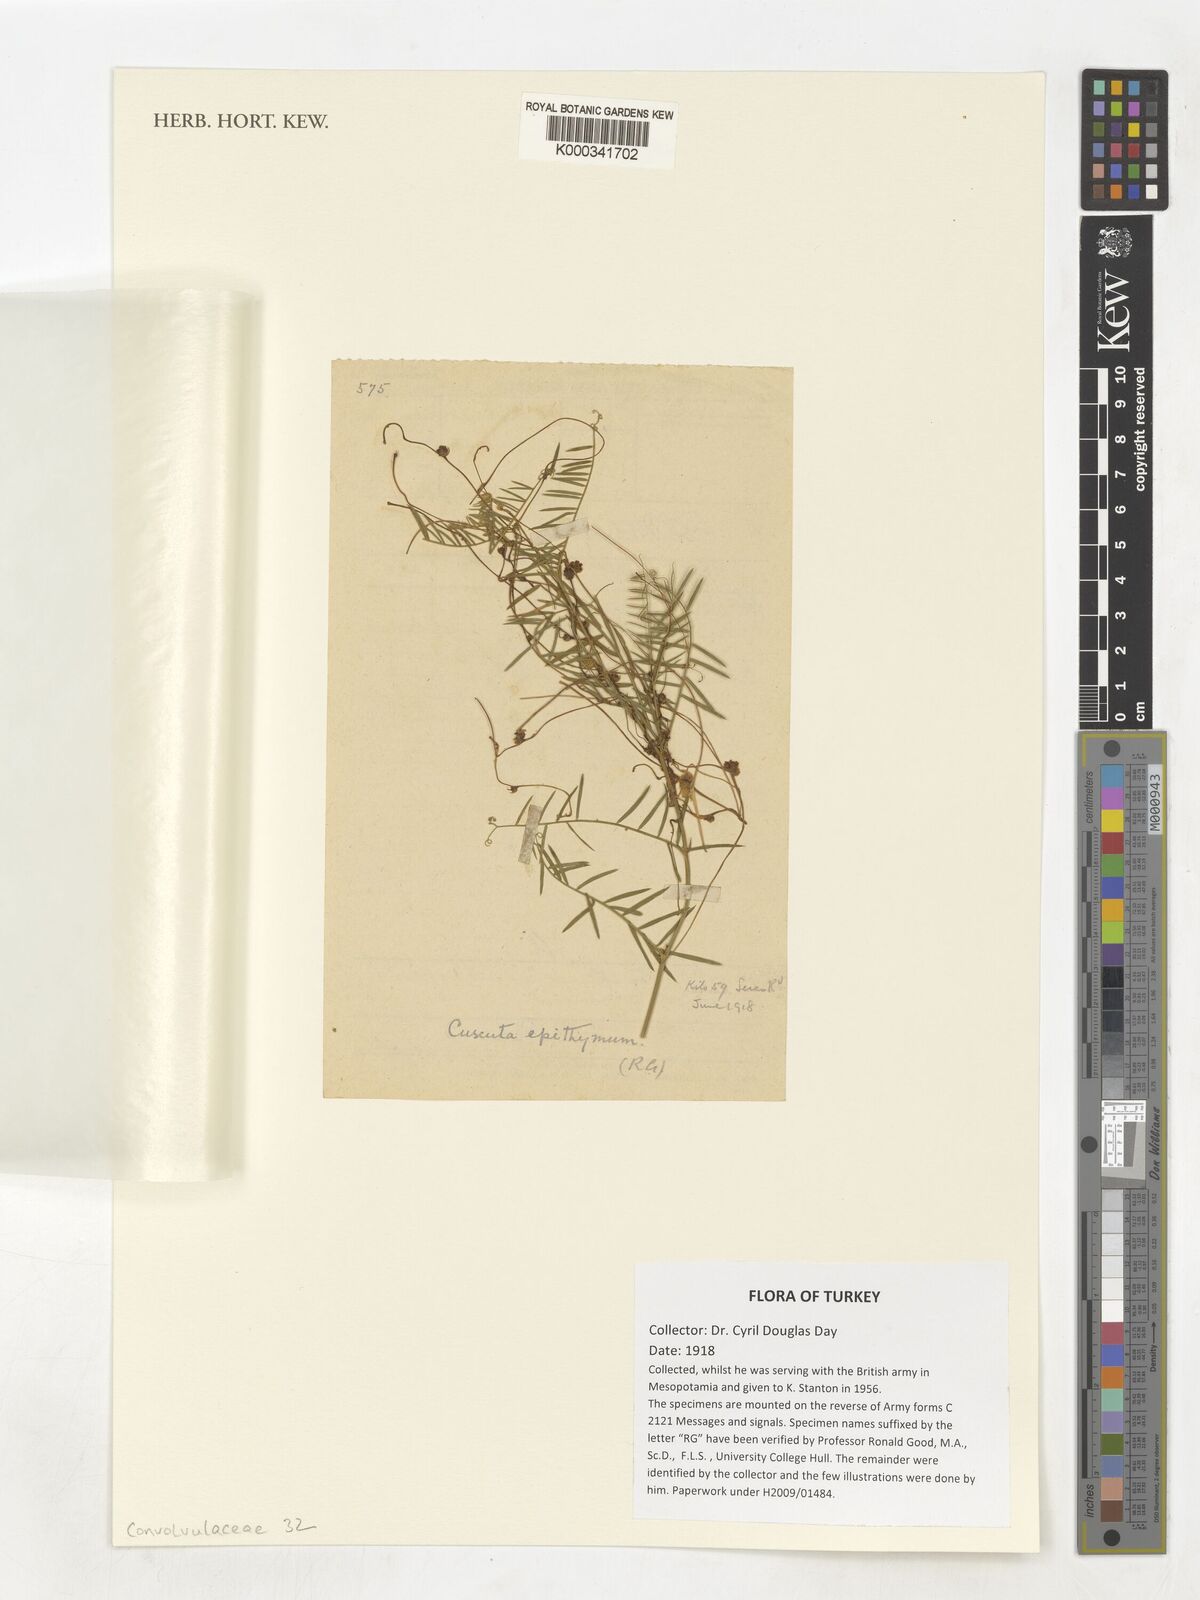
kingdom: Plantae
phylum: Tracheophyta
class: Magnoliopsida
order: Solanales
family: Convolvulaceae
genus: Cuscuta
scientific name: Cuscuta
